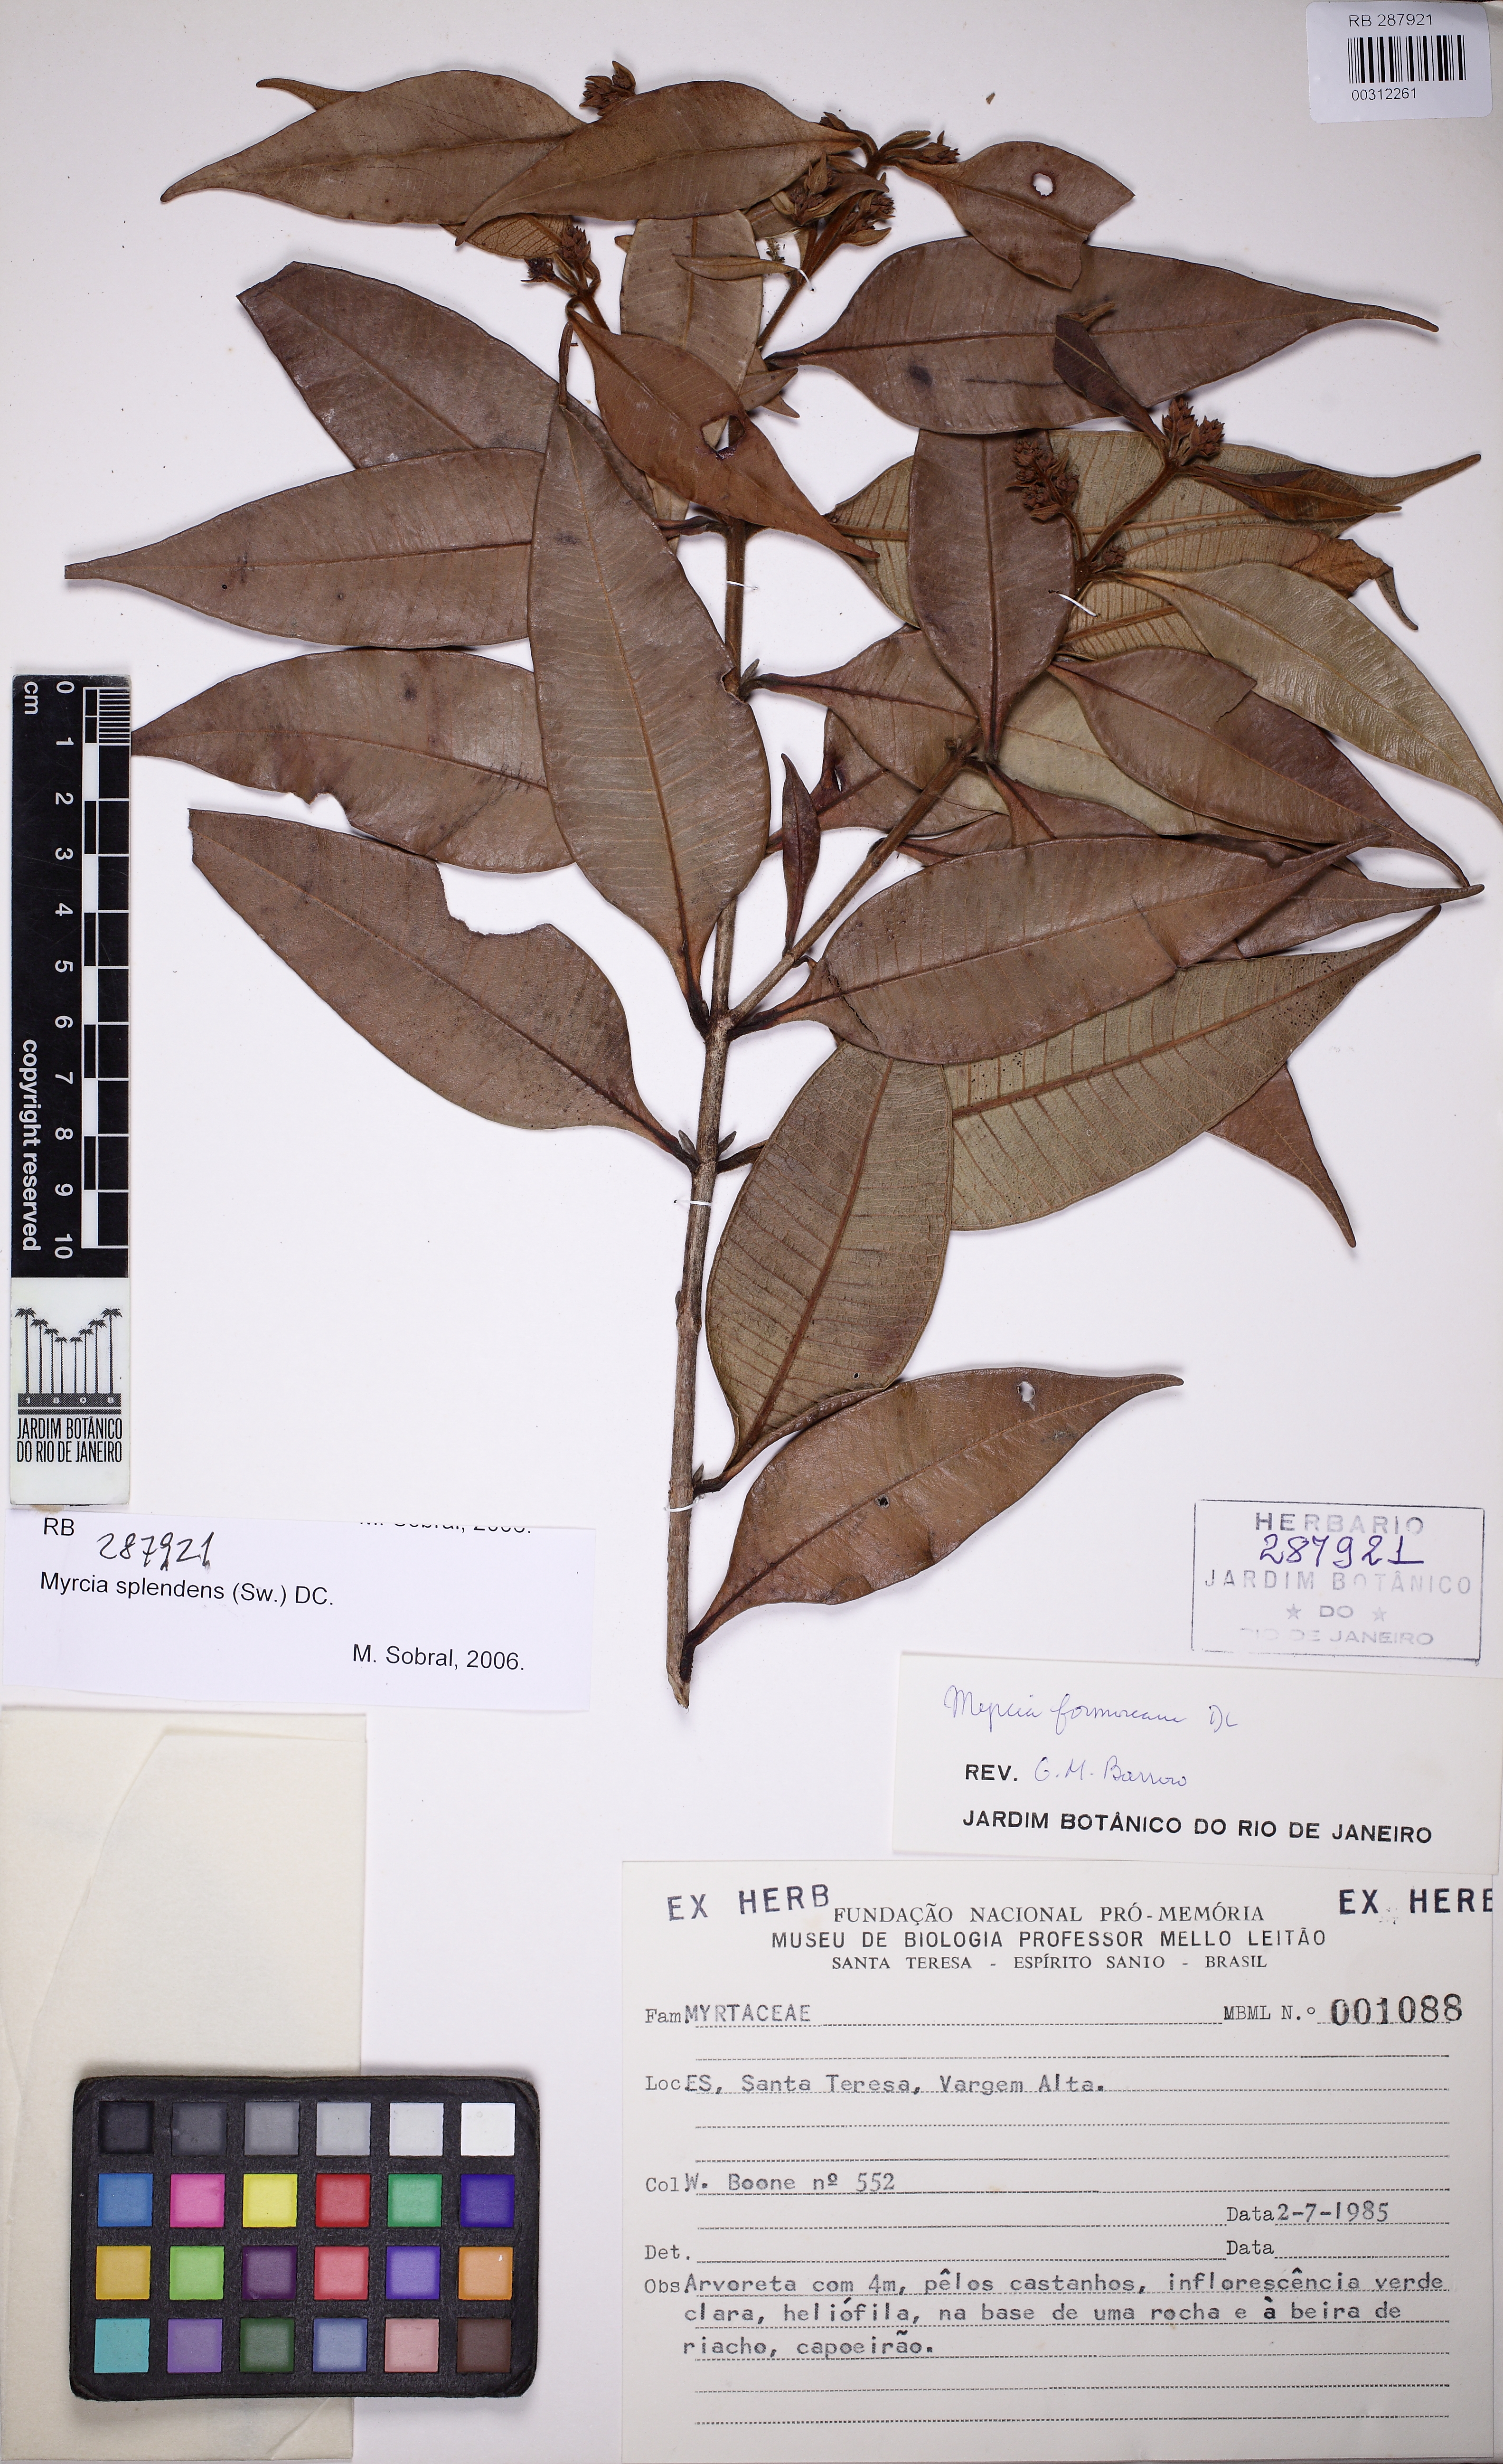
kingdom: Plantae
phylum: Tracheophyta
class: Magnoliopsida
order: Myrtales
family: Myrtaceae
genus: Myrcia
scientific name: Myrcia splendens
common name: Surinam cherry
